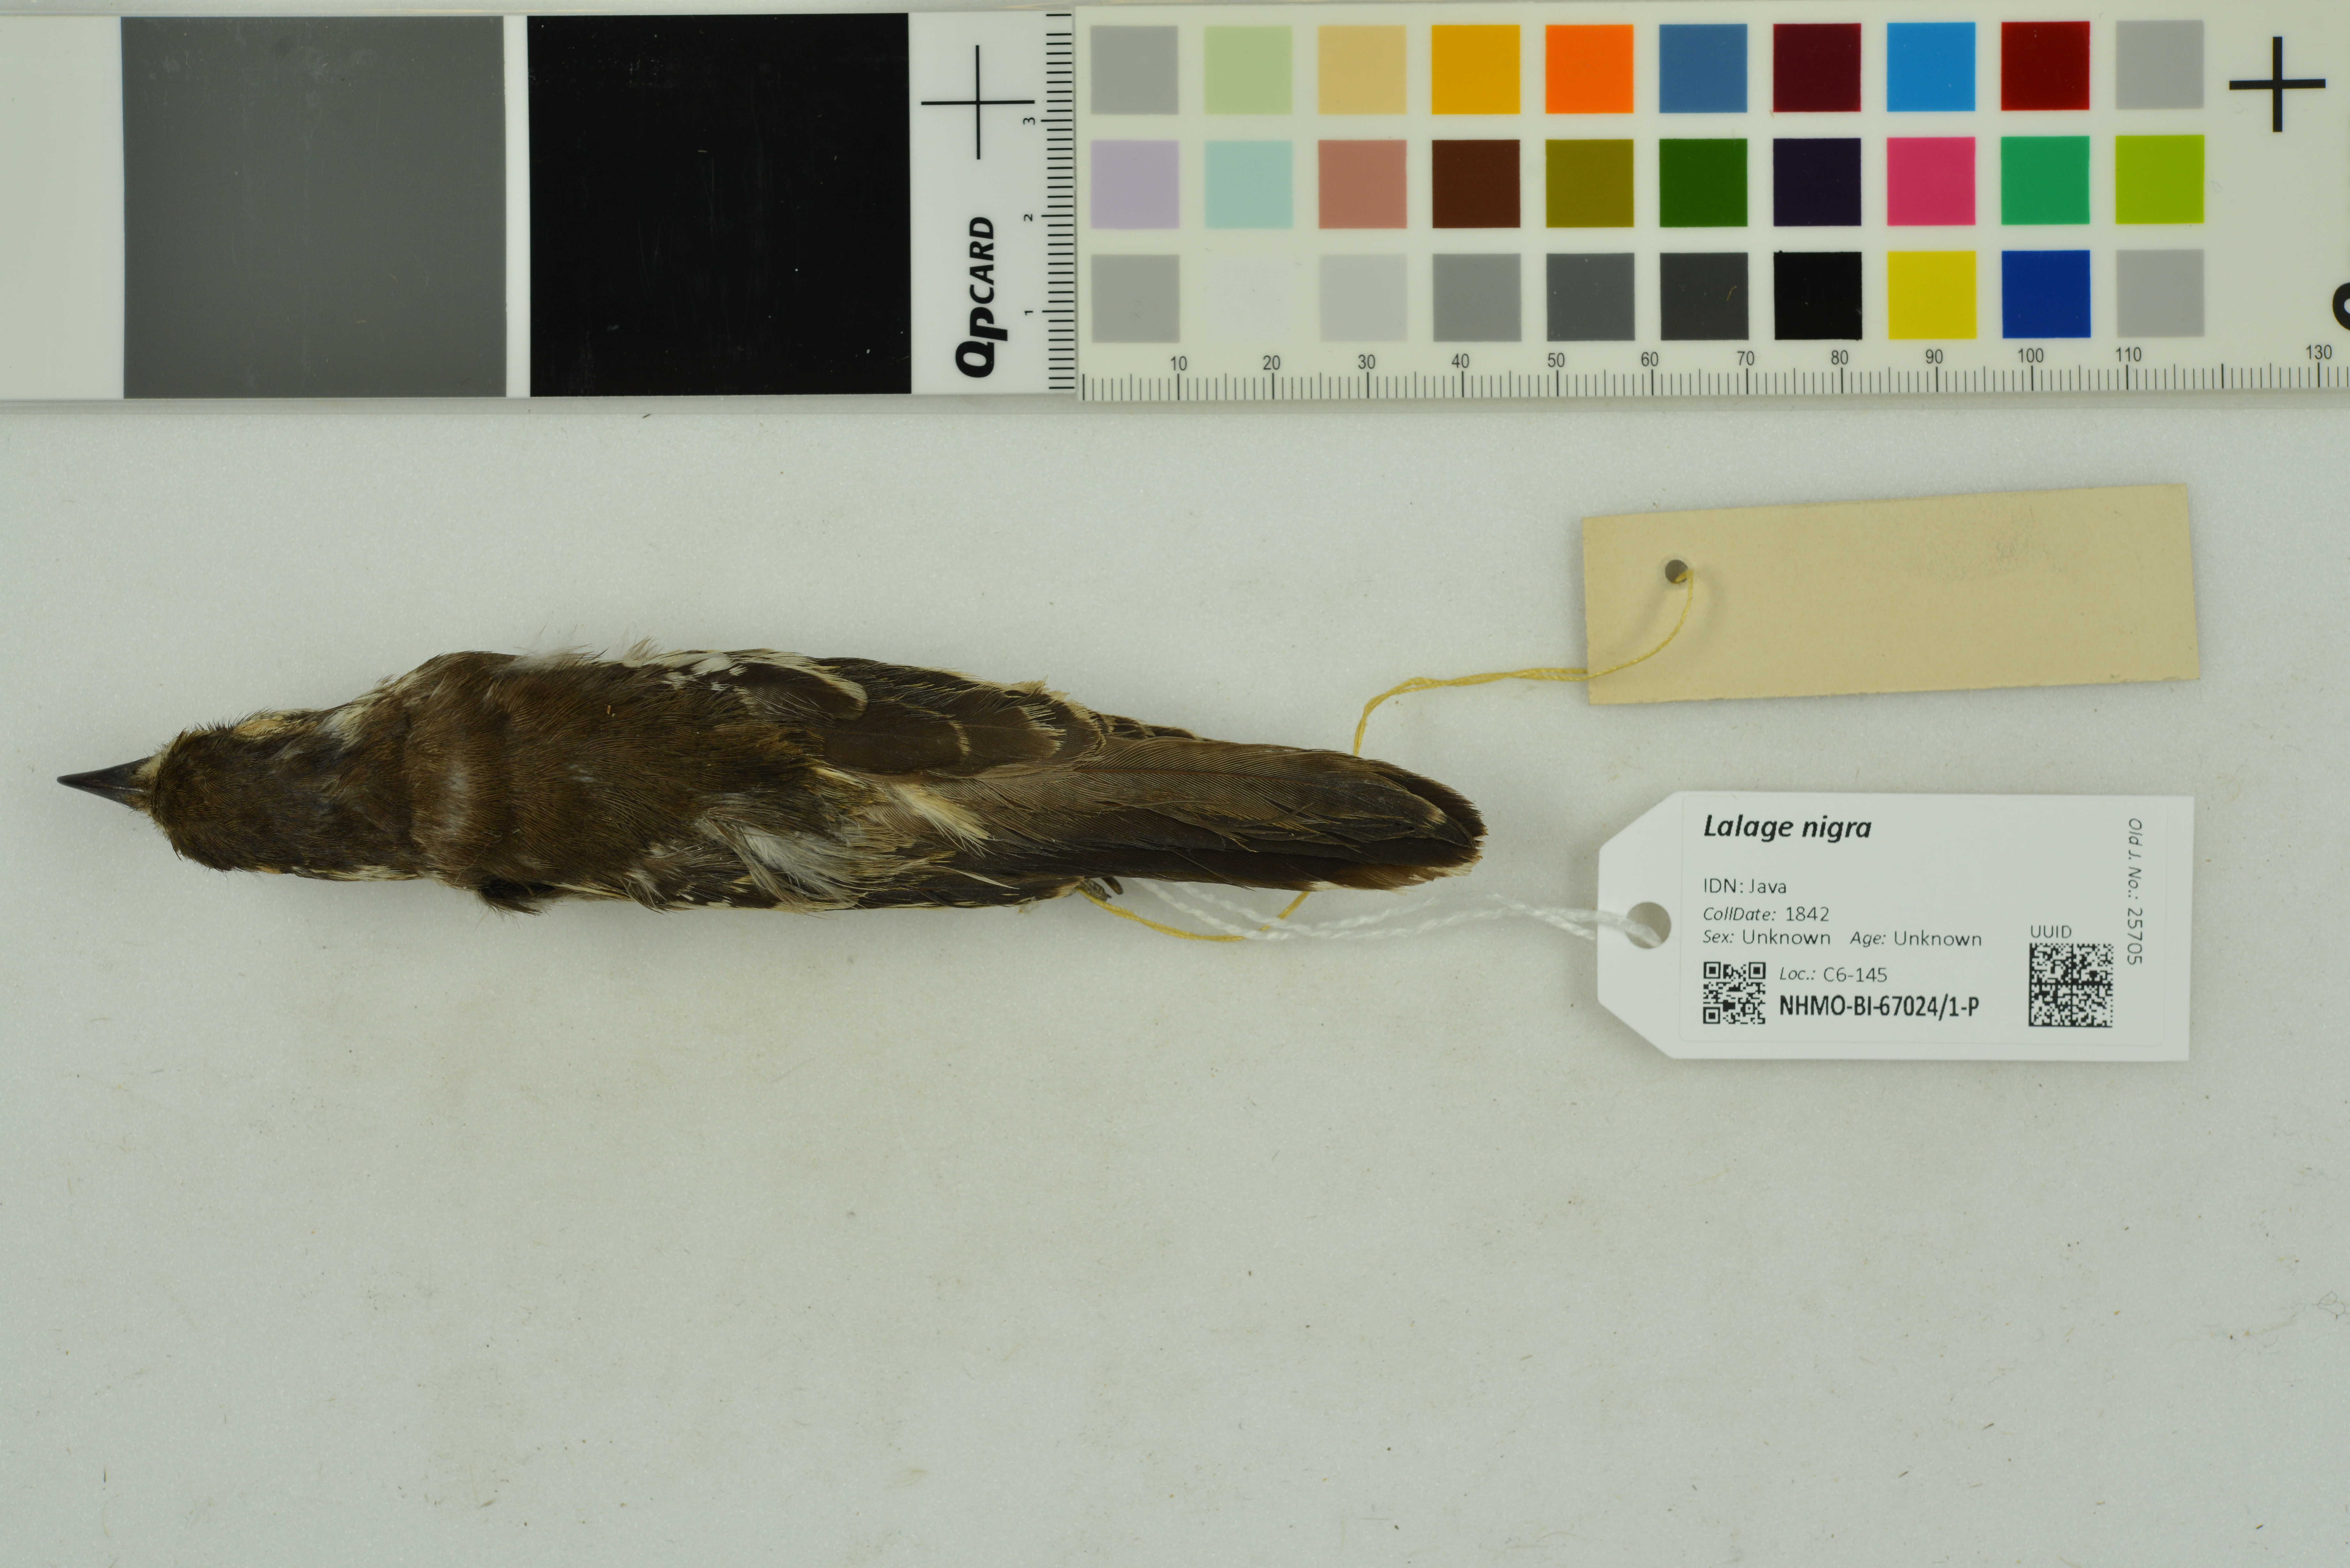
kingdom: Animalia
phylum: Chordata
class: Aves
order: Passeriformes
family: Campephagidae
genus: Lalage
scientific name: Lalage nigra
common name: Pied triller
